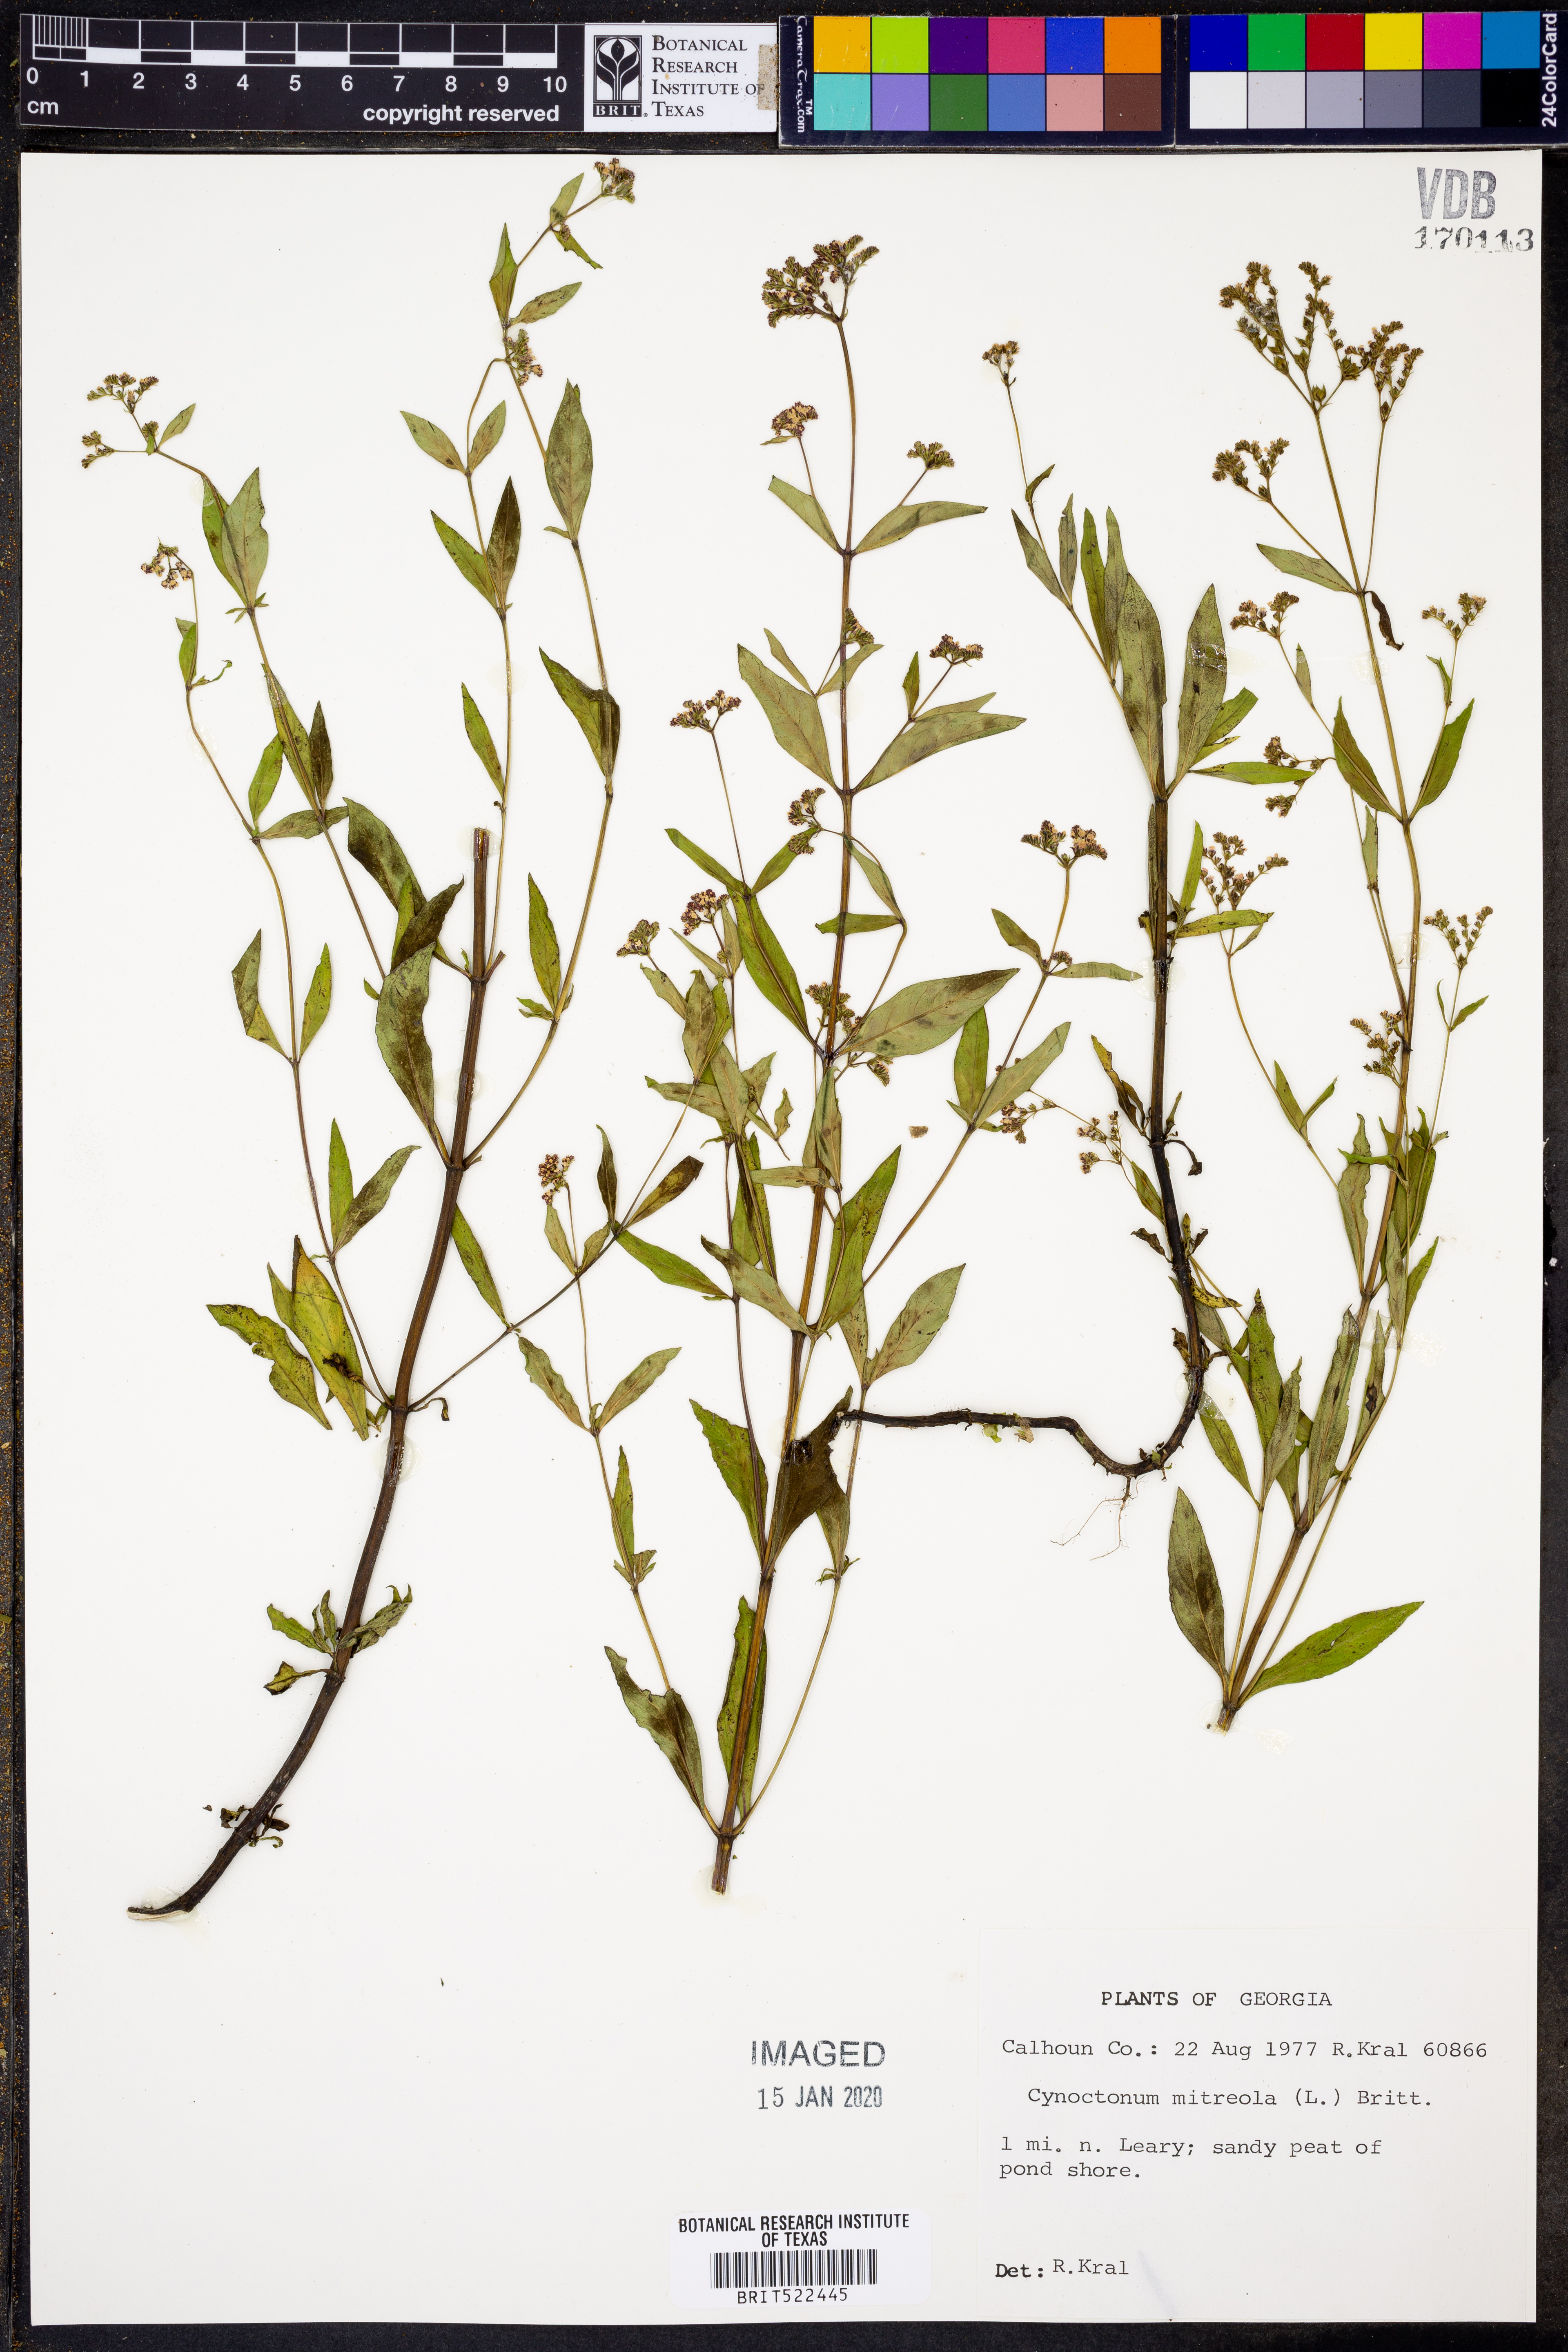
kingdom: Plantae
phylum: Tracheophyta
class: Magnoliopsida
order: Gentianales
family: Loganiaceae
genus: Mitreola
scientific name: Mitreola petiolata
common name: Lax hornpod
